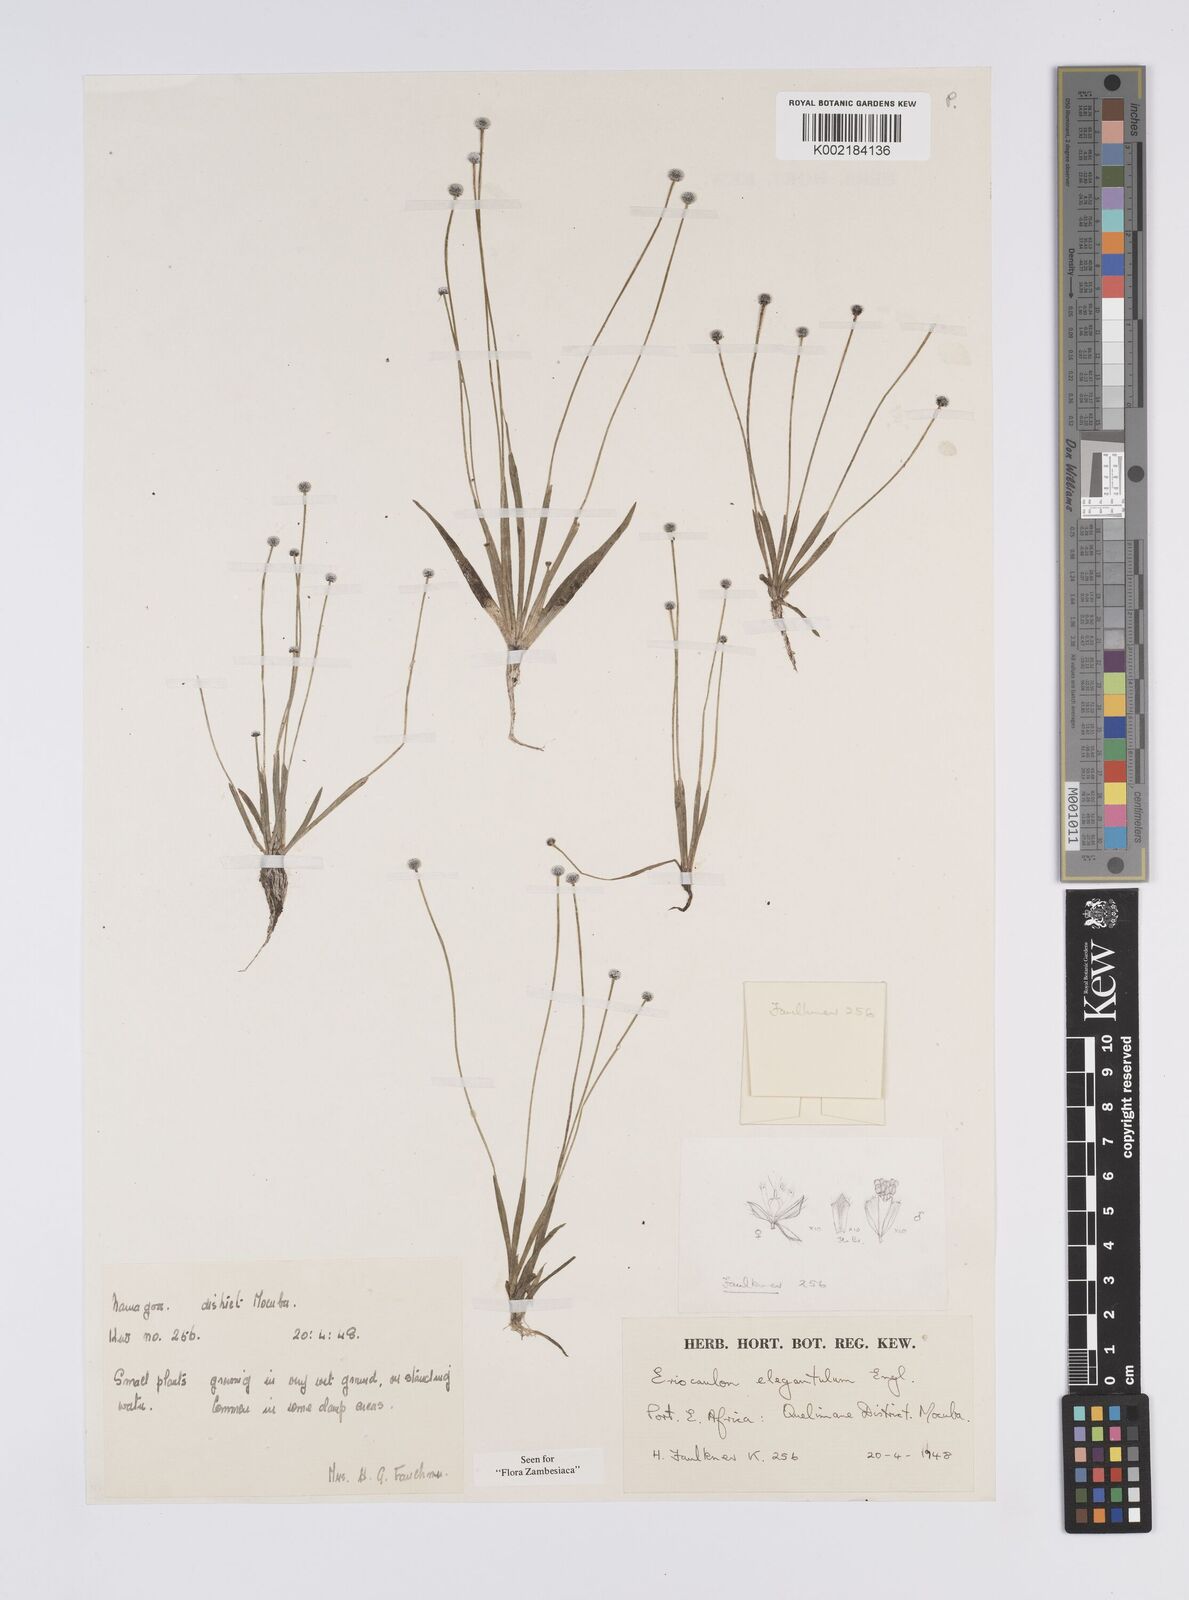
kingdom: Plantae
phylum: Tracheophyta
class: Liliopsida
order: Poales
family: Eriocaulaceae
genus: Eriocaulon
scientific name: Eriocaulon elegantulum
